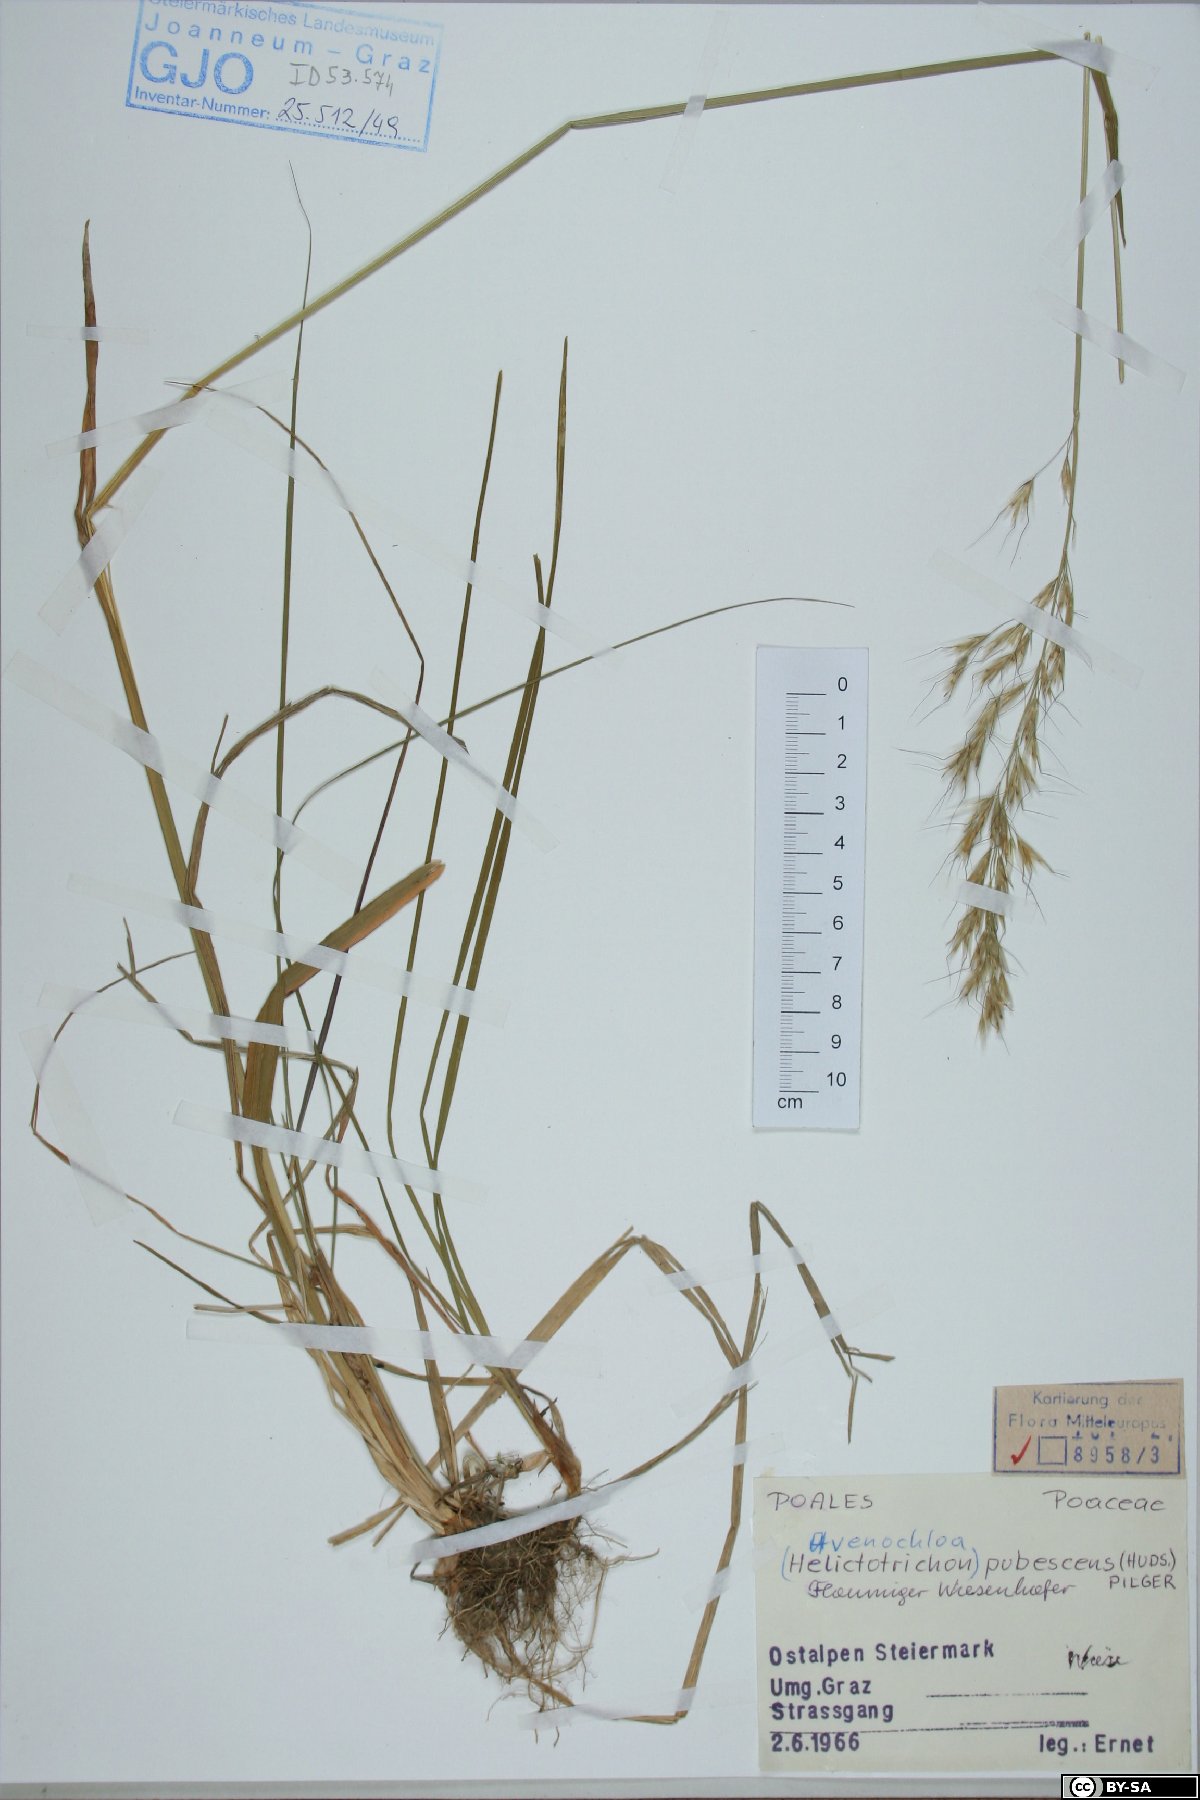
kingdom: Plantae
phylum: Tracheophyta
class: Liliopsida
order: Poales
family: Poaceae
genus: Avenula
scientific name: Avenula pubescens
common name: Downy alpine oatgrass
